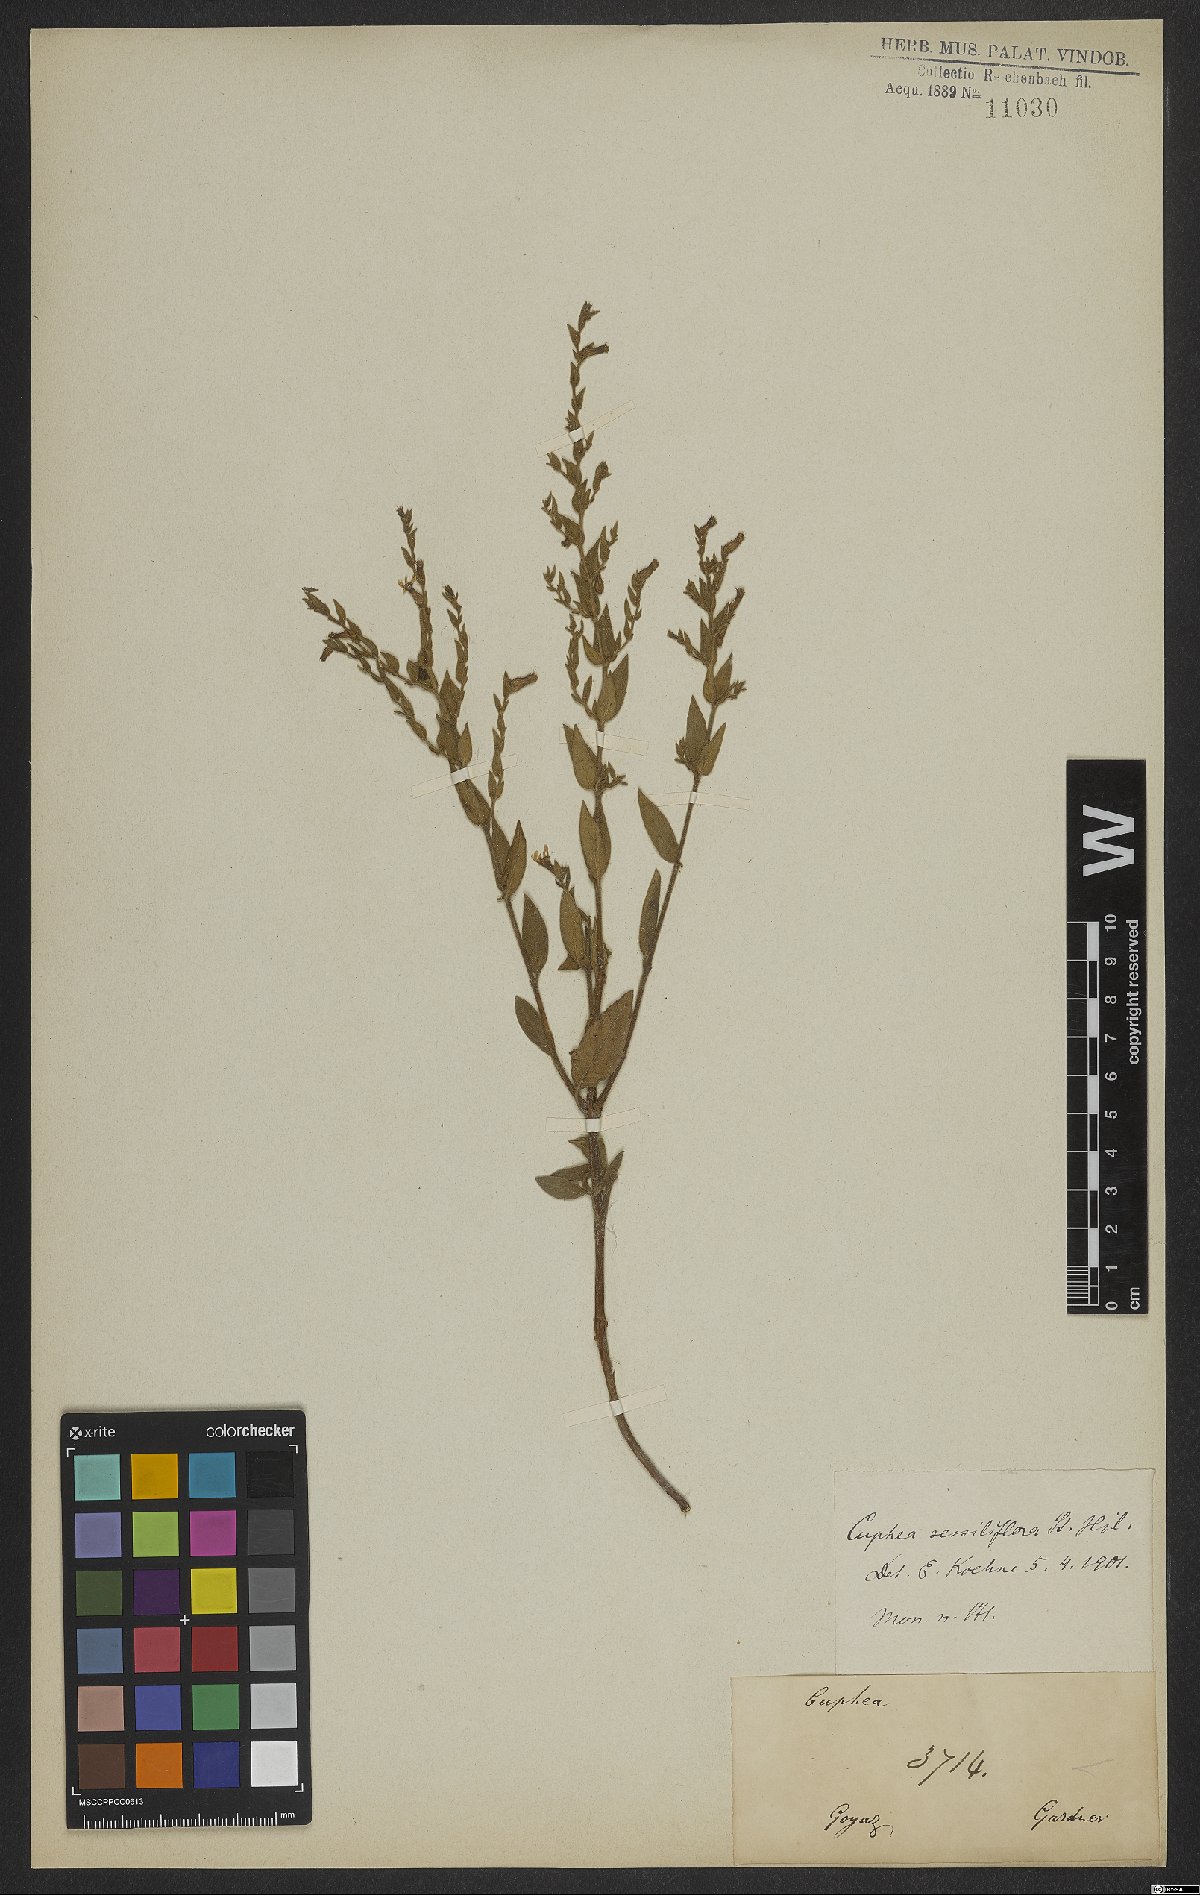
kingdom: Plantae
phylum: Tracheophyta
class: Magnoliopsida
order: Myrtales
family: Lythraceae
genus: Cuphea
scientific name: Cuphea sessiliflora
